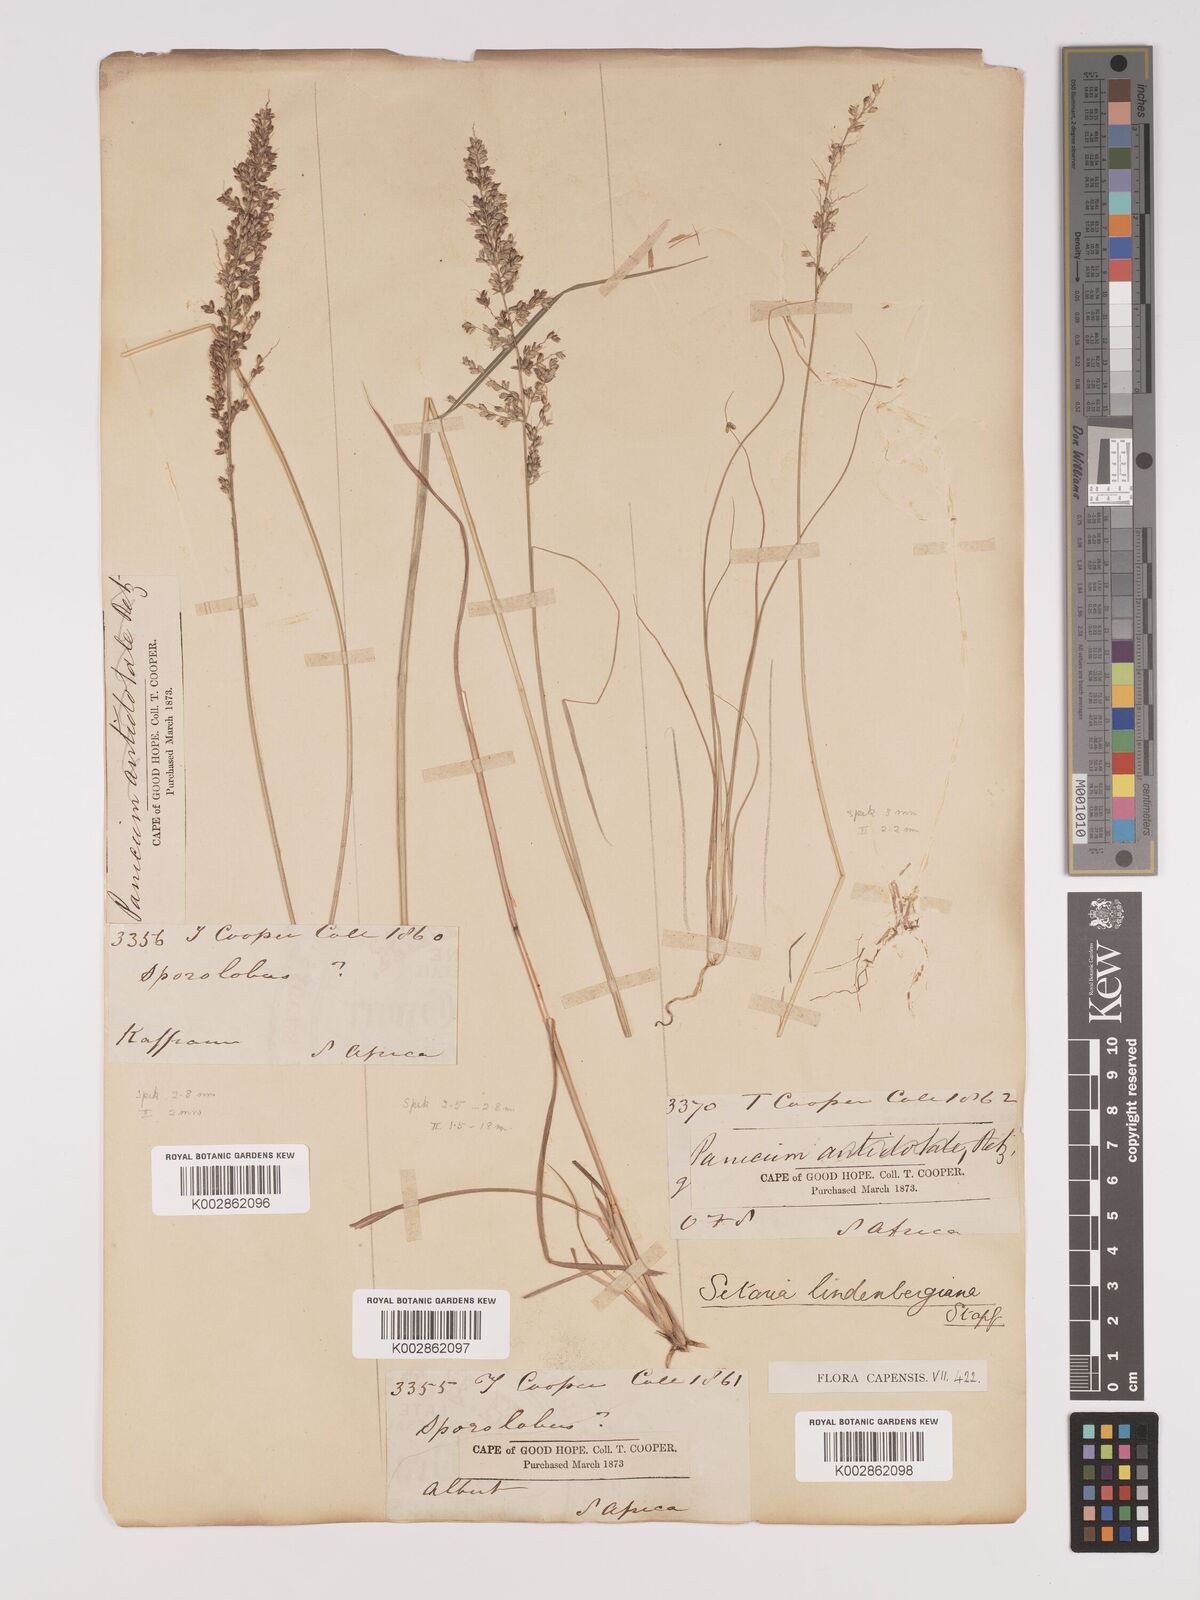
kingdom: Plantae
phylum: Tracheophyta
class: Liliopsida
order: Poales
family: Poaceae
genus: Setaria
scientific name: Setaria lindenbergiana
